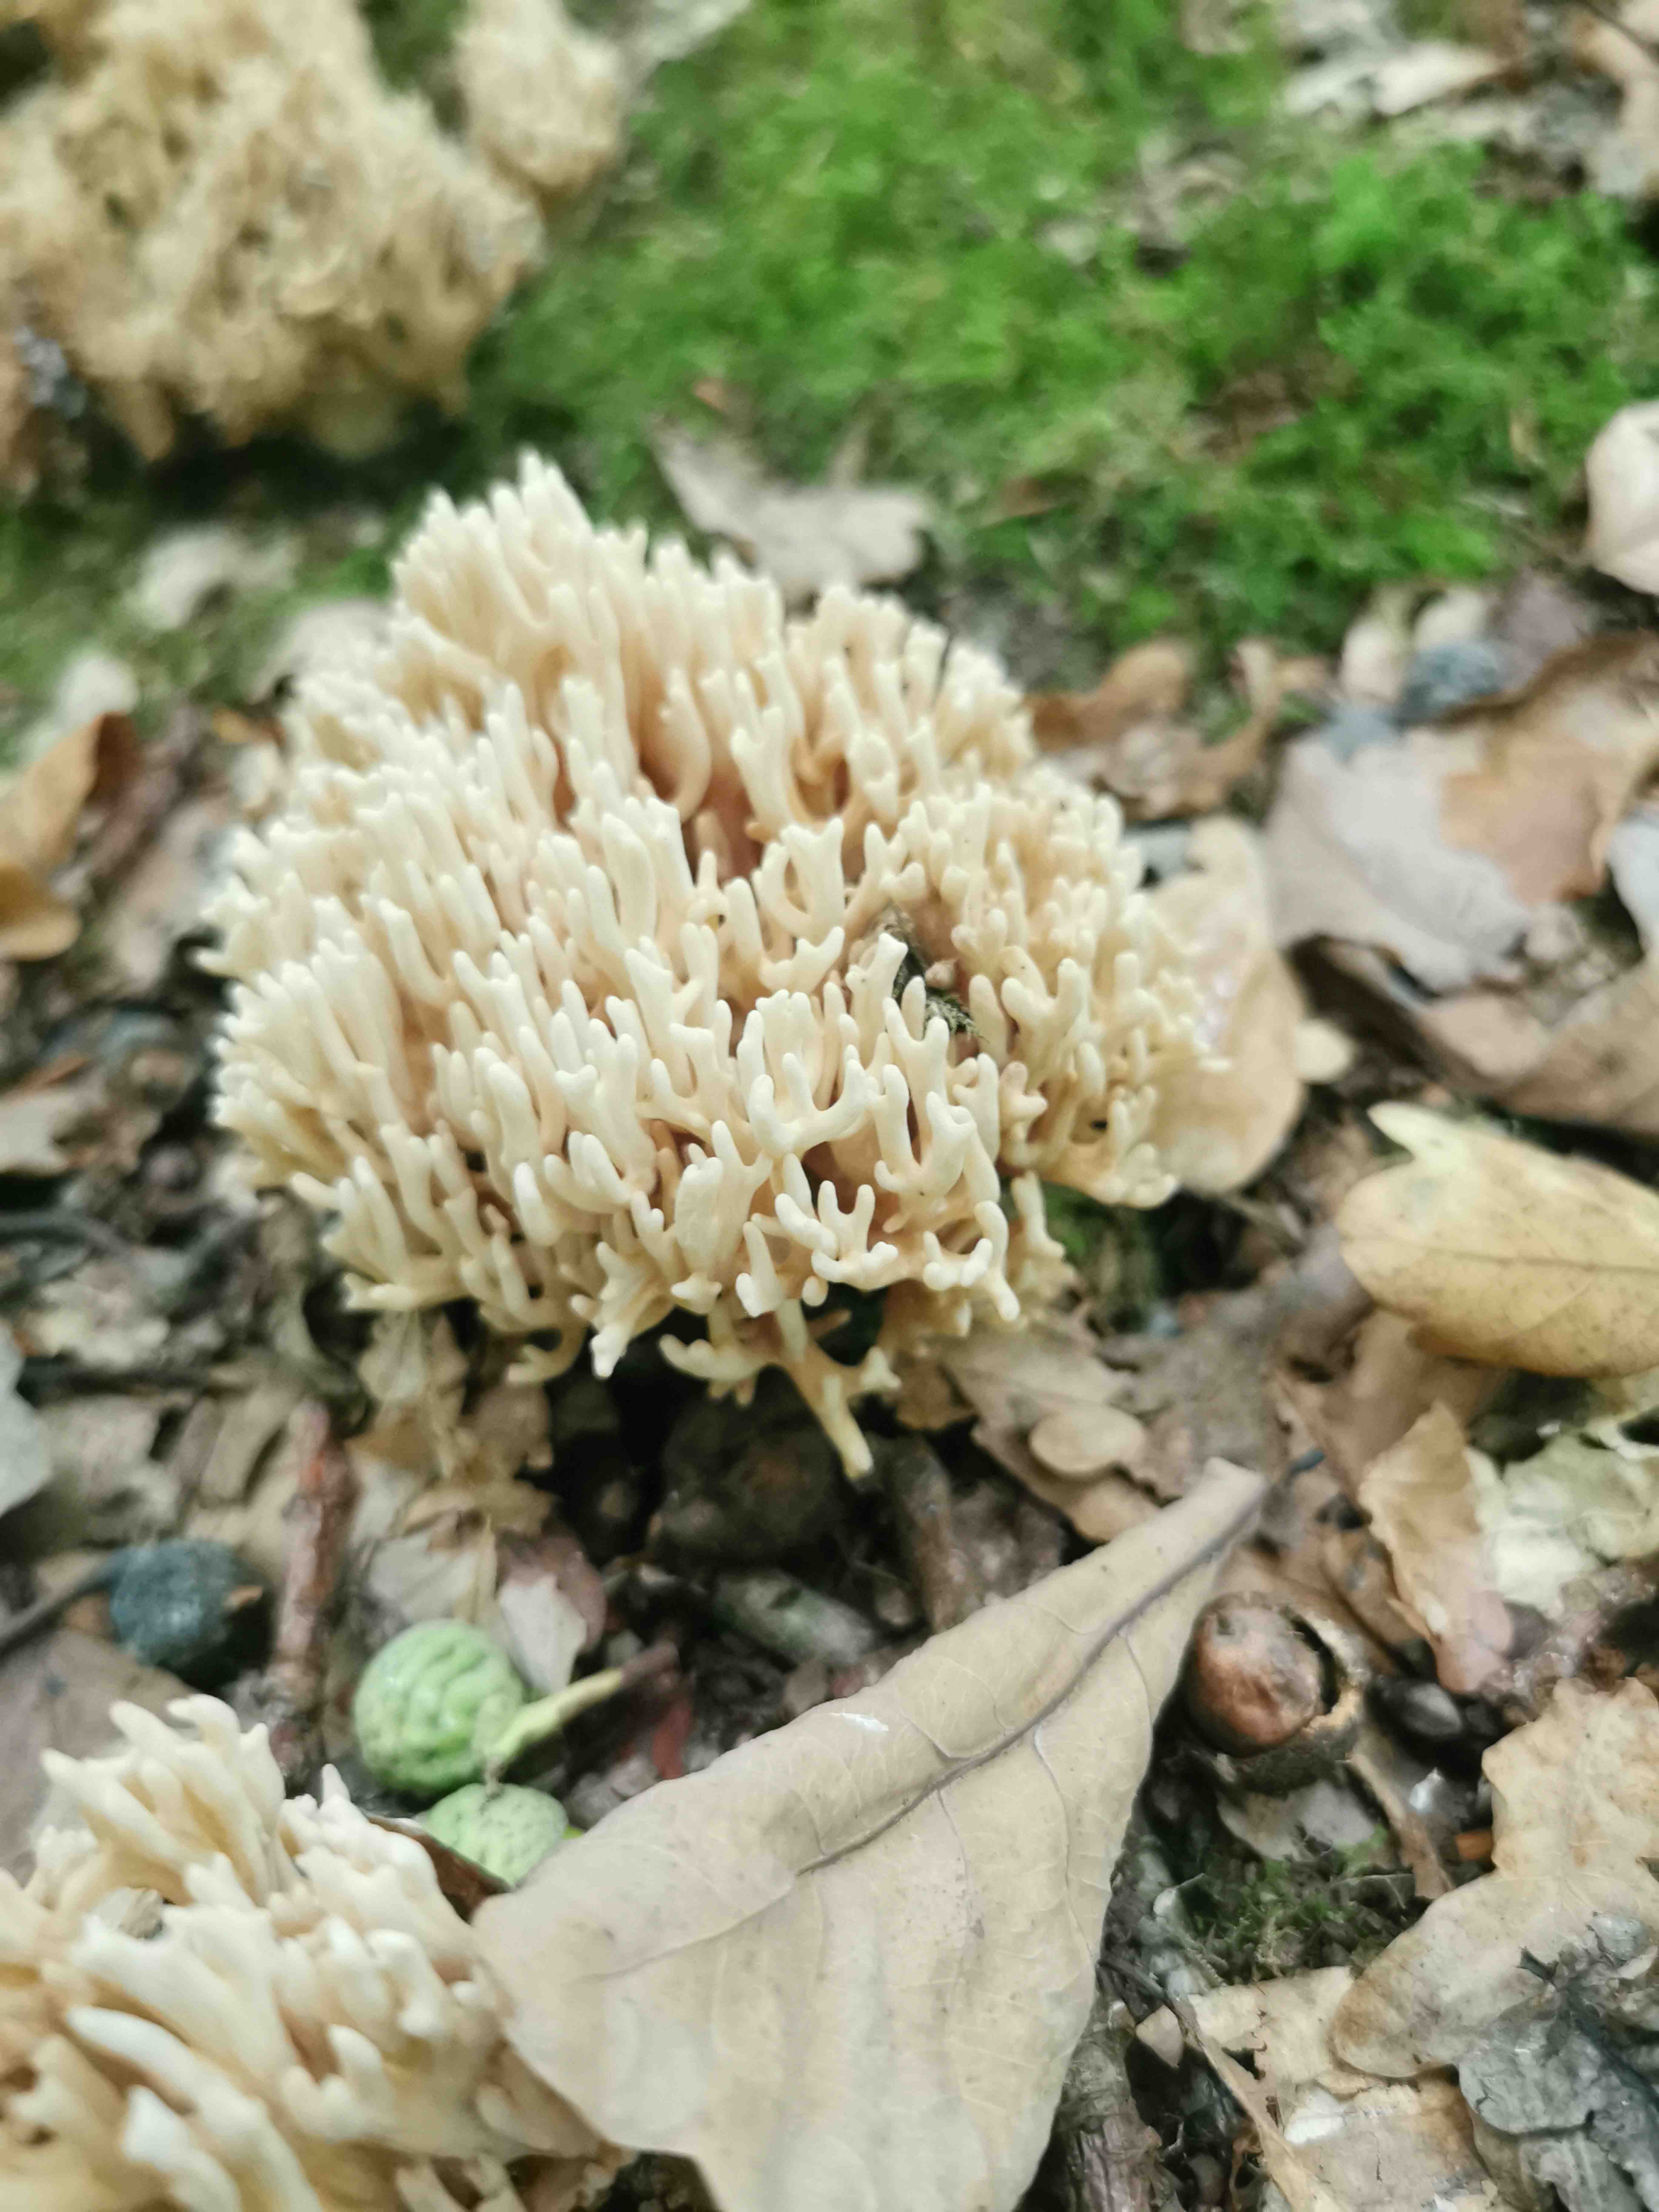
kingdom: Fungi
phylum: Basidiomycota
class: Agaricomycetes
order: Gomphales
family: Gomphaceae
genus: Ramaria
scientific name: Ramaria
